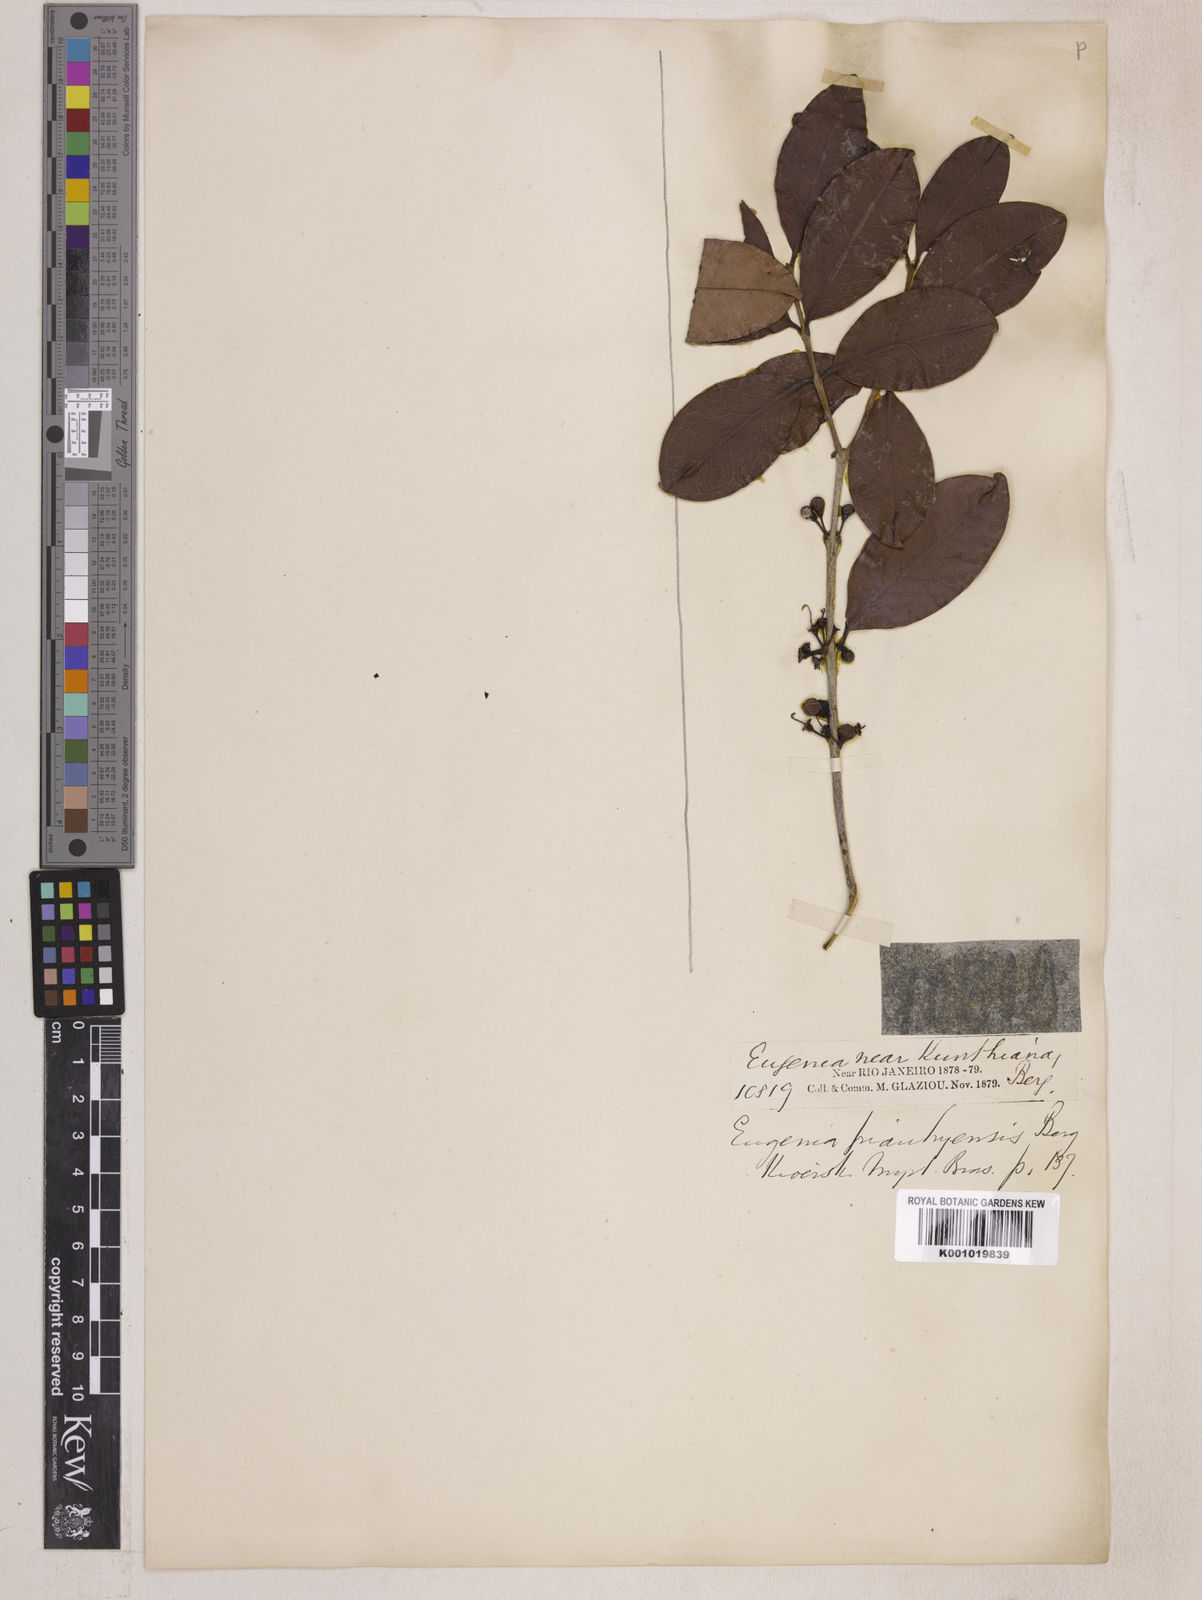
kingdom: Plantae
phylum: Tracheophyta
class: Magnoliopsida
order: Myrtales
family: Myrtaceae
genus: Eugenia
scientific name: Eugenia stictopetala
